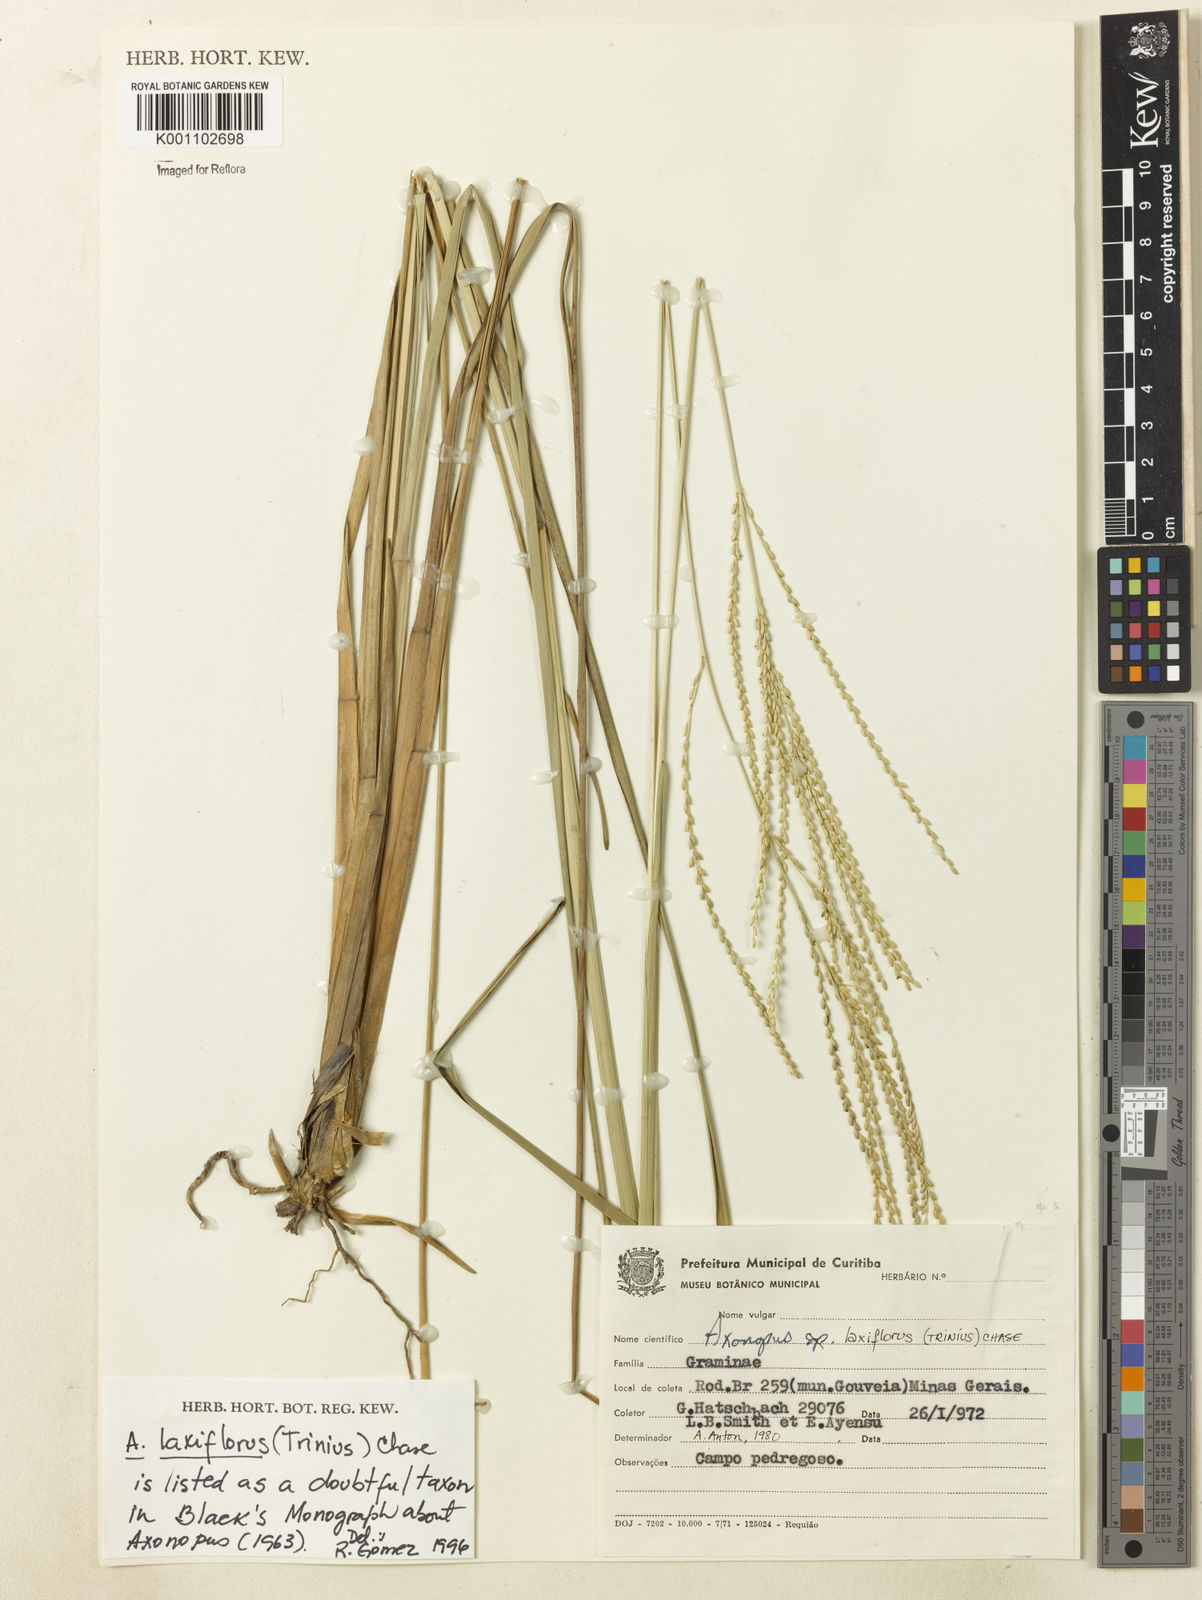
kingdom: Plantae
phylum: Tracheophyta
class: Liliopsida
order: Poales
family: Poaceae
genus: Axonopus
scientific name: Axonopus laxiflorus
